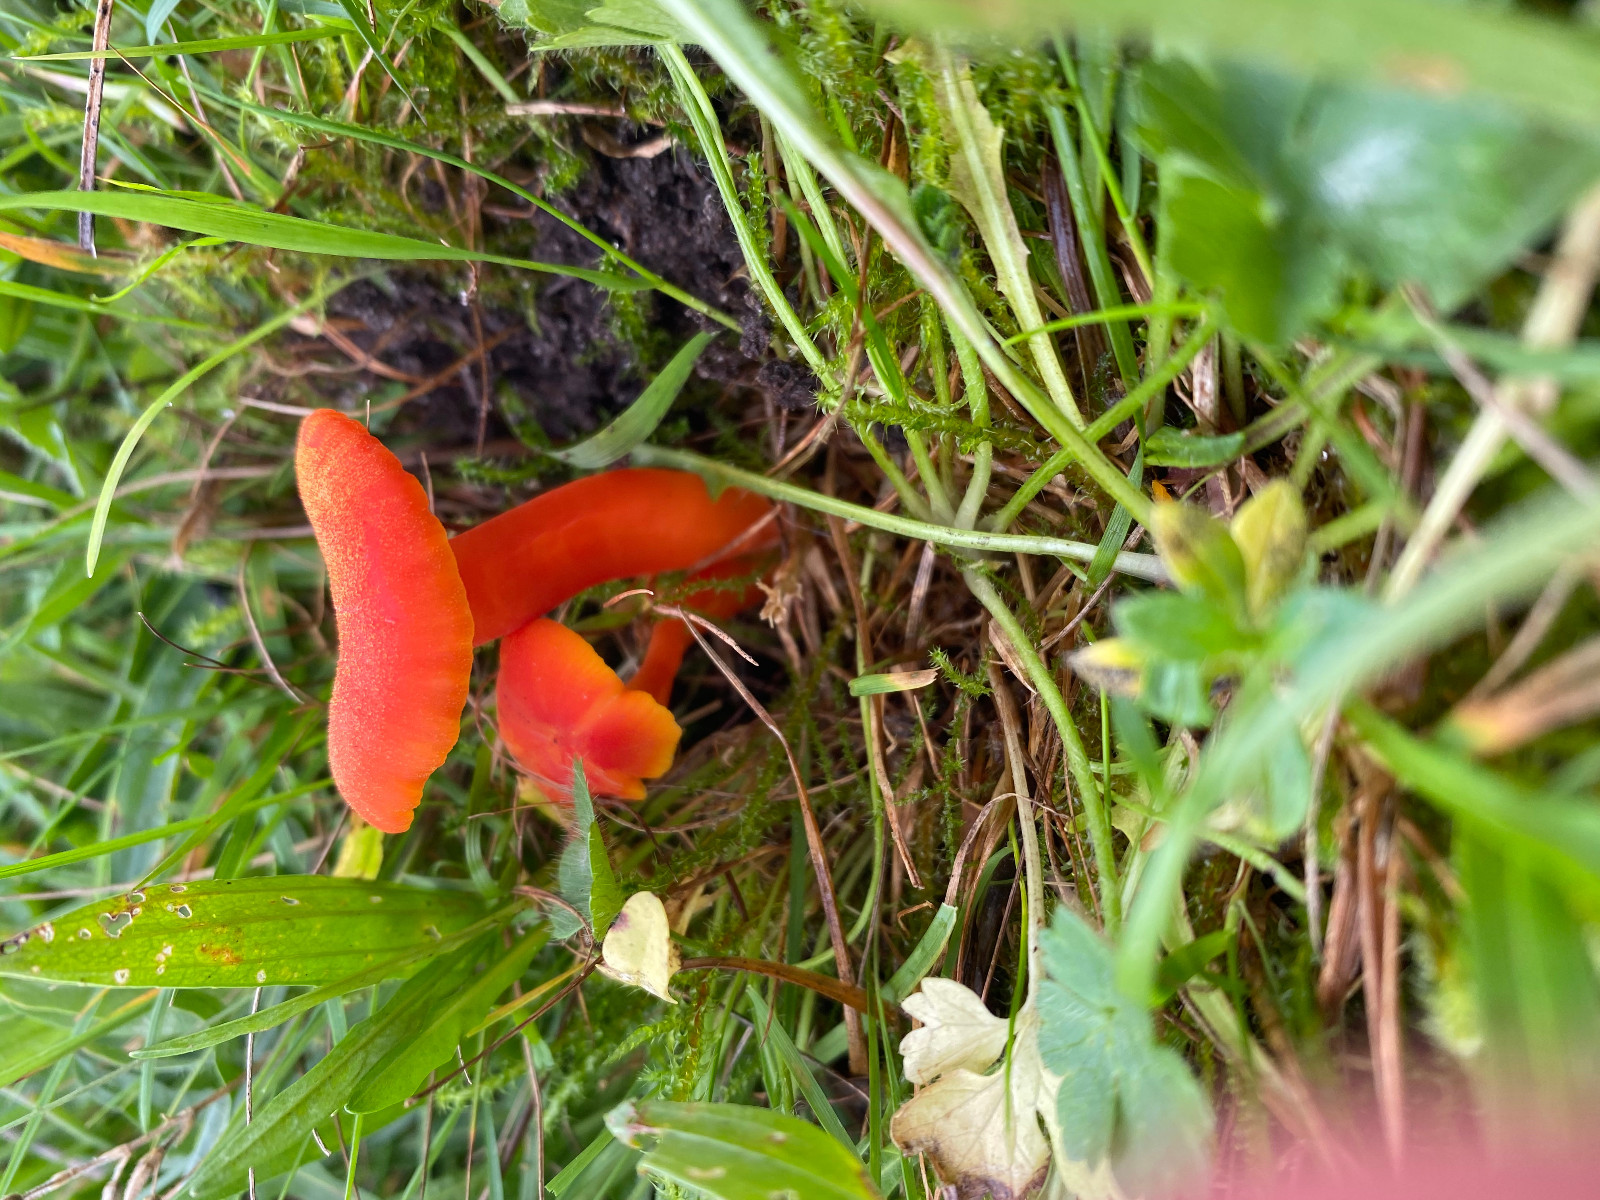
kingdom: Fungi
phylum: Basidiomycota
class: Agaricomycetes
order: Agaricales
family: Hygrophoraceae
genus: Hygrocybe
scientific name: Hygrocybe miniata
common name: mønje-vokshat
